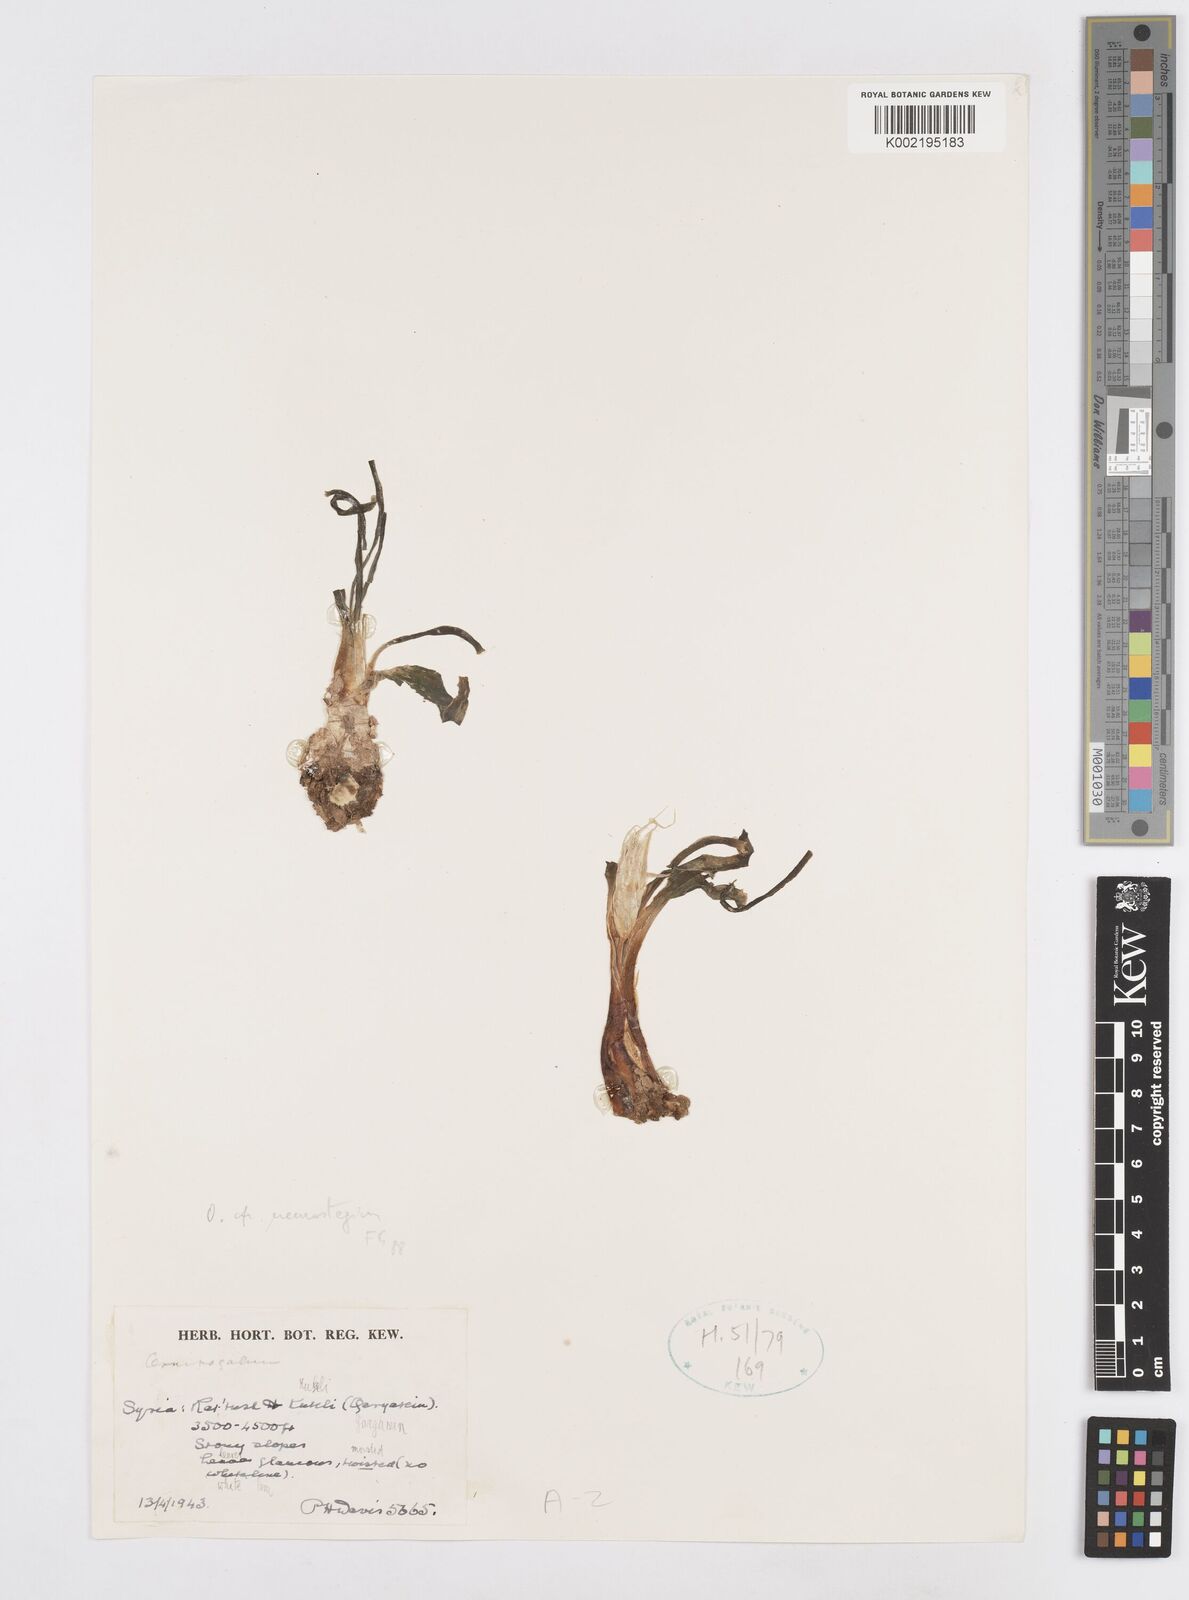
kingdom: Plantae
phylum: Tracheophyta
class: Liliopsida
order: Asparagales
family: Asparagaceae
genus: Ornithogalum
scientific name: Ornithogalum neurostegium
